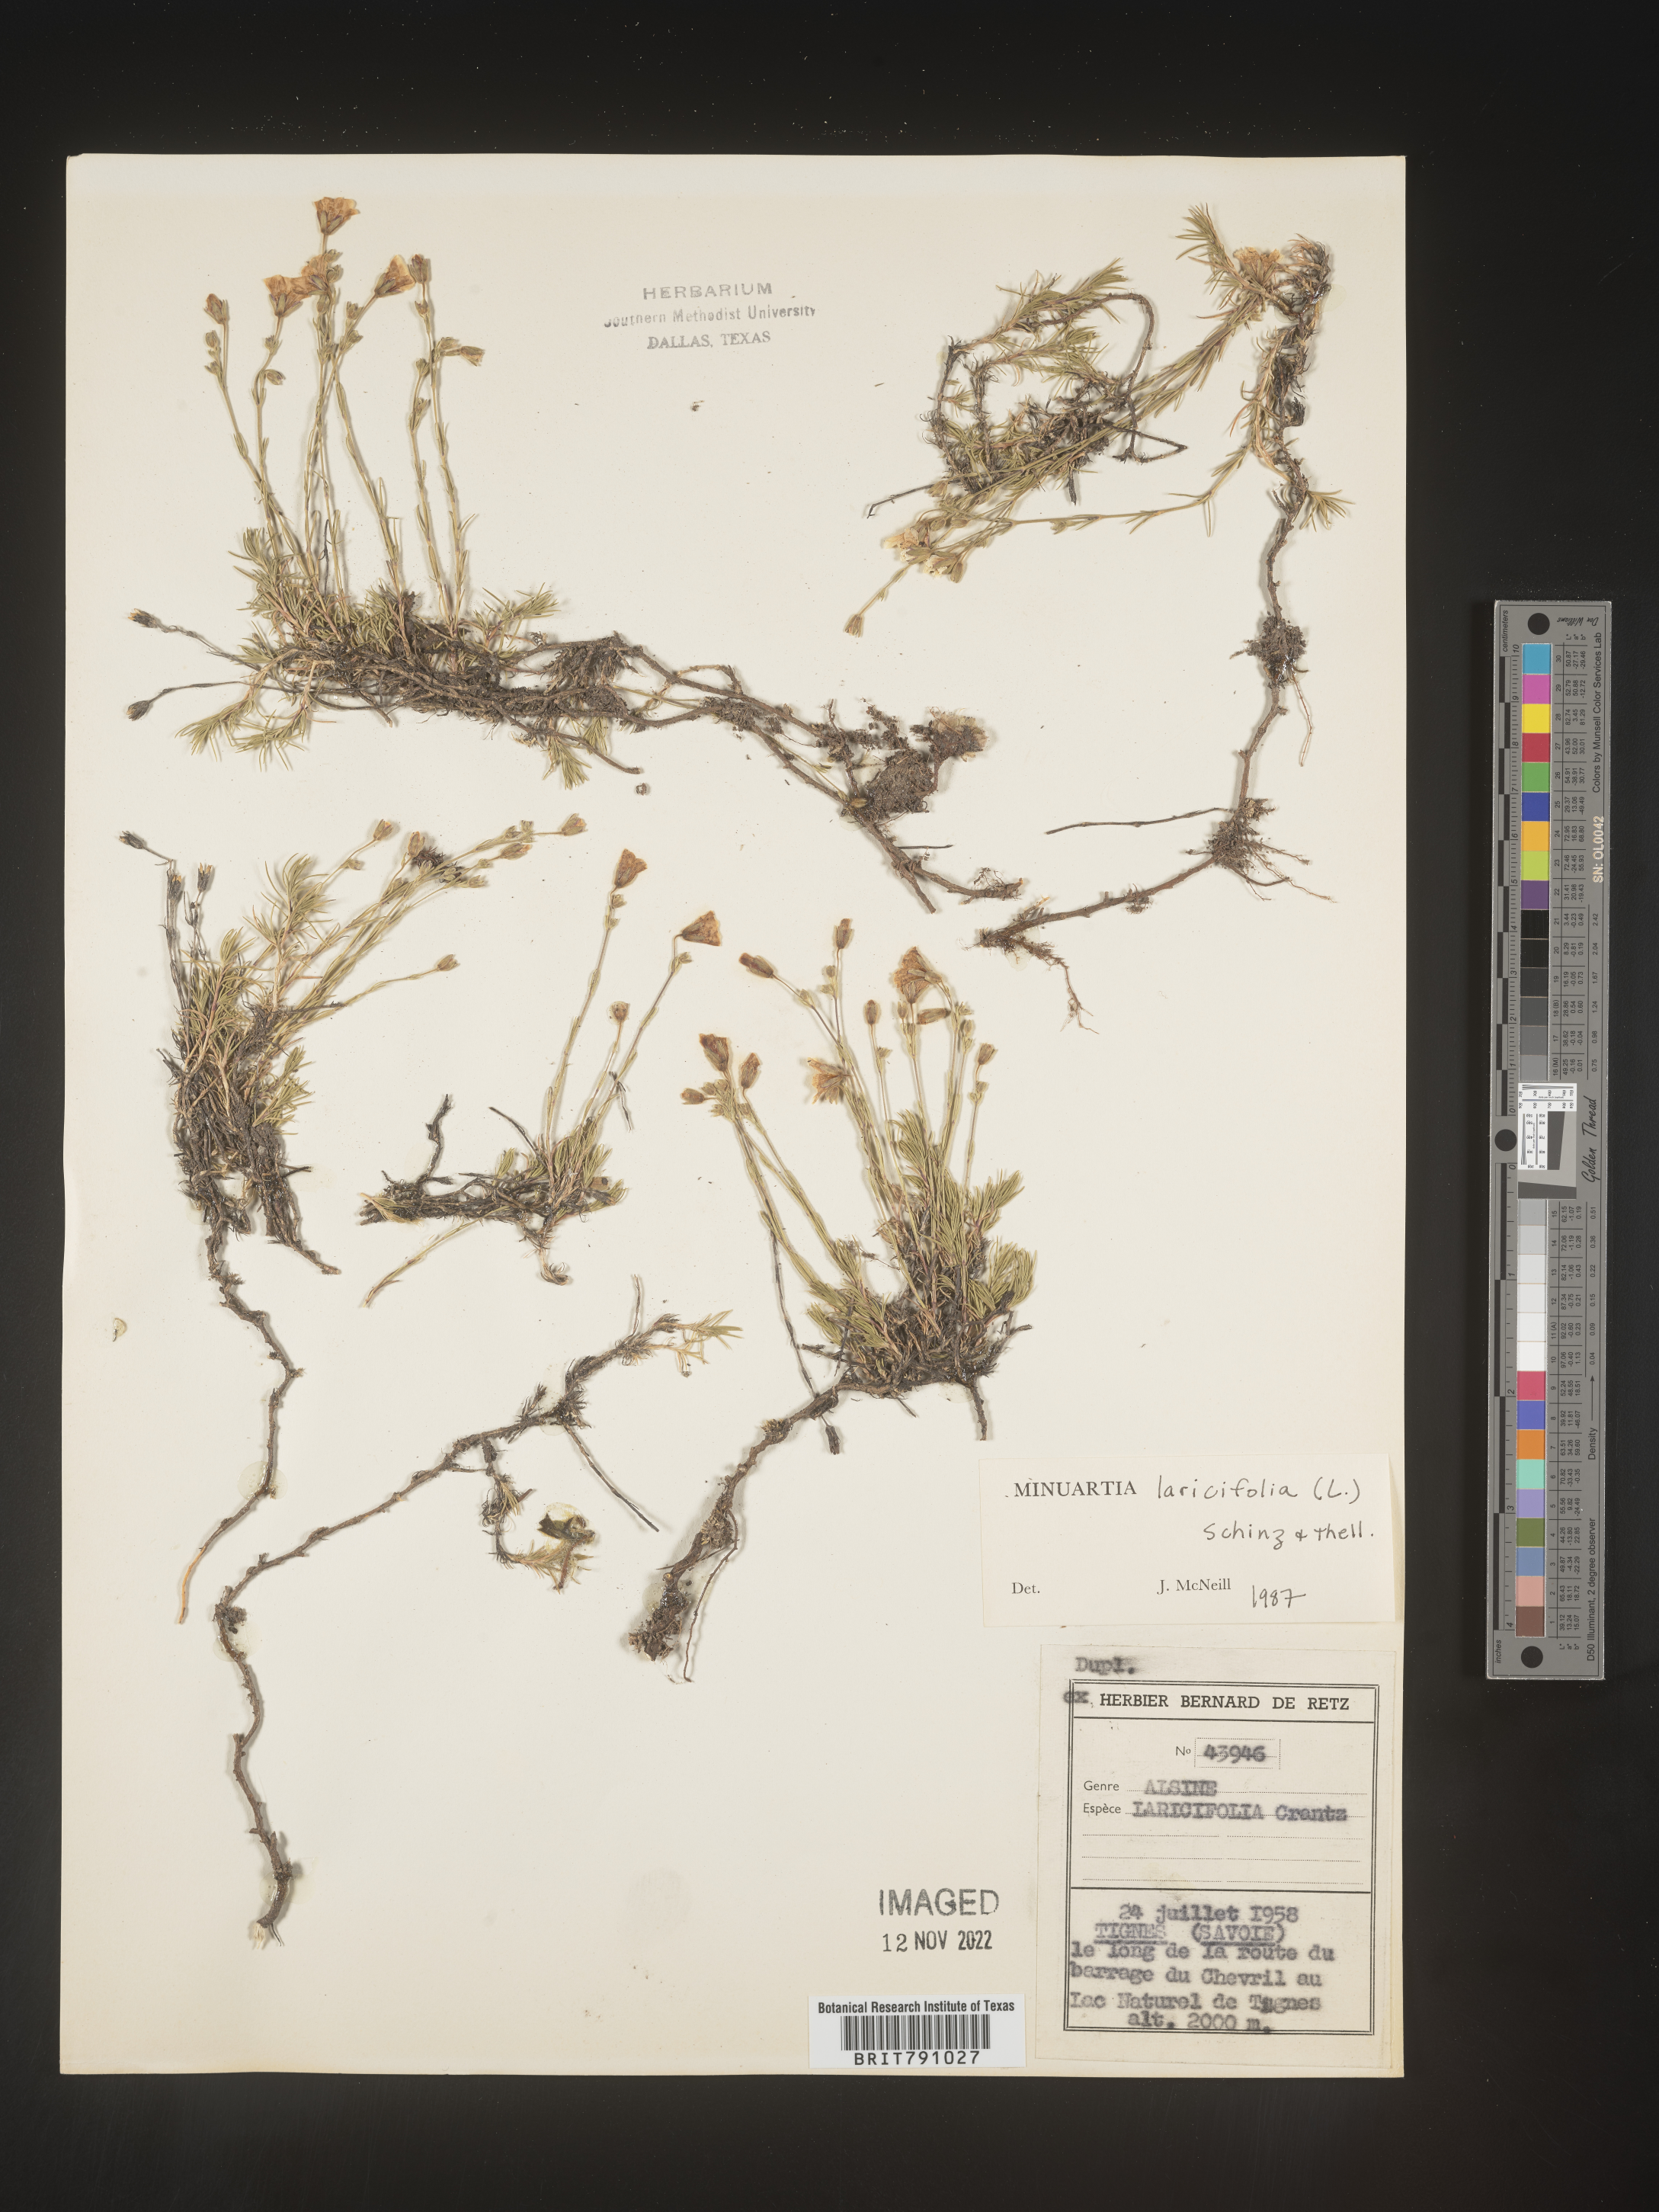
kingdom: Plantae
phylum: Tracheophyta
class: Magnoliopsida
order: Caryophyllales
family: Caryophyllaceae
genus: Minuartia
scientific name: Minuartia
